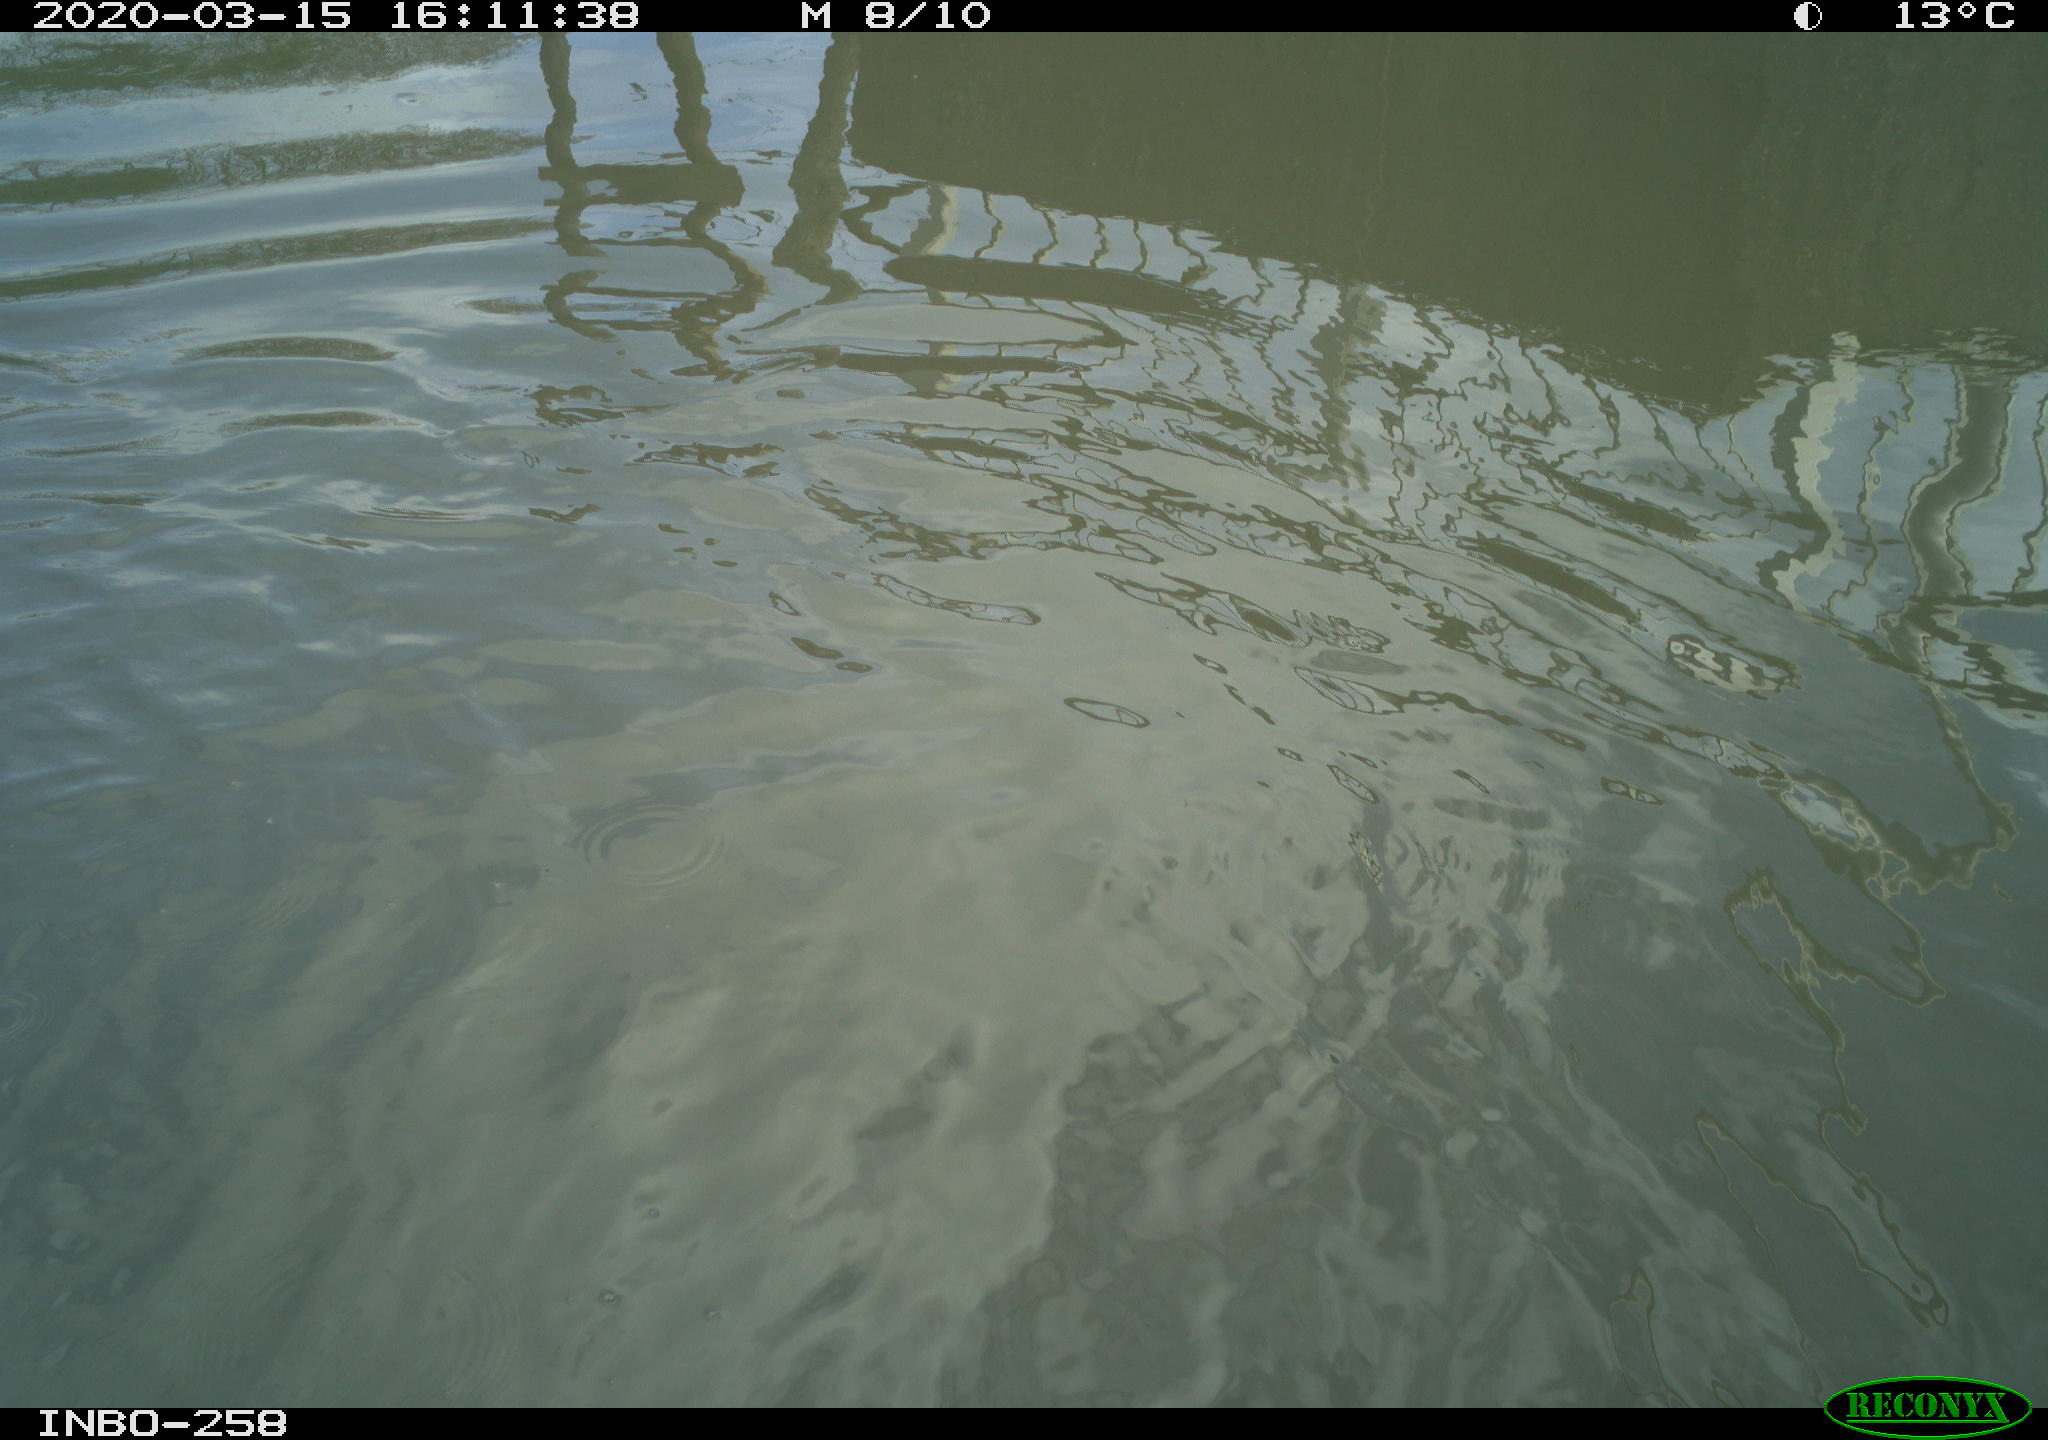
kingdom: Animalia
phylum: Chordata
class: Aves
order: Gruiformes
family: Rallidae
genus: Gallinula
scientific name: Gallinula chloropus
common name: Common moorhen
